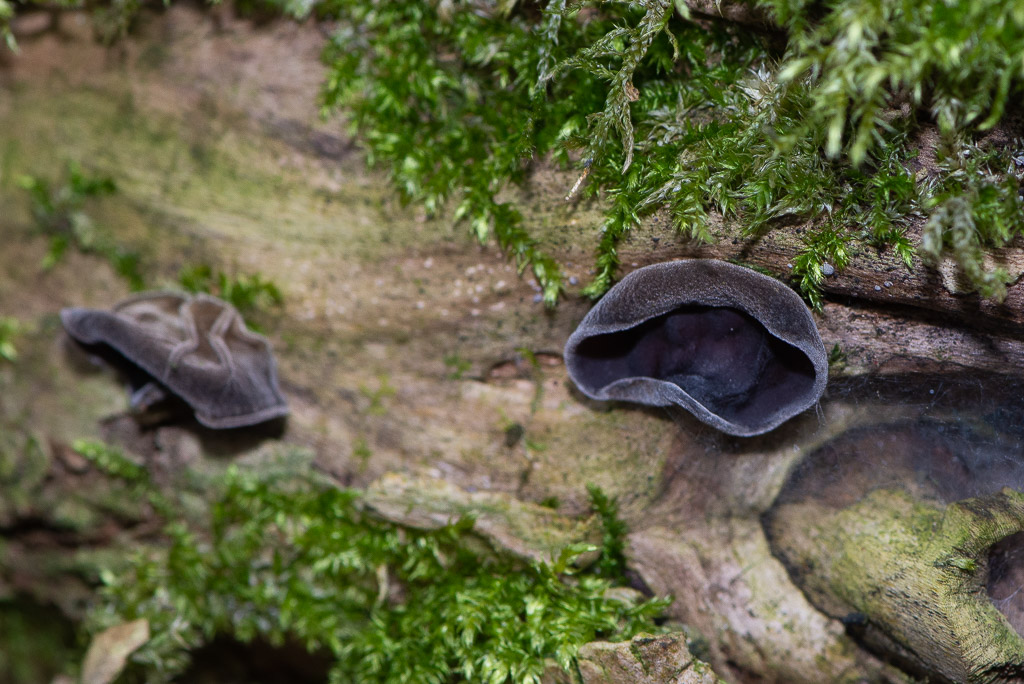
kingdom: Fungi
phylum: Basidiomycota
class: Agaricomycetes
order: Auriculariales
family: Auriculariaceae
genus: Auricularia
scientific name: Auricularia auricula-judae
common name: almindelig judasøre
